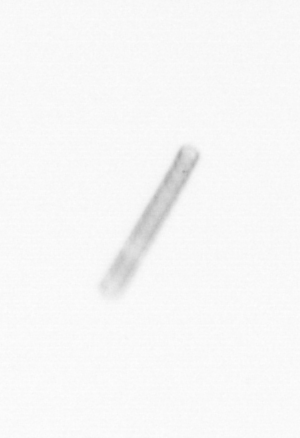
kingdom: Chromista
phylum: Ochrophyta
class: Bacillariophyceae
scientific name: Bacillariophyceae
